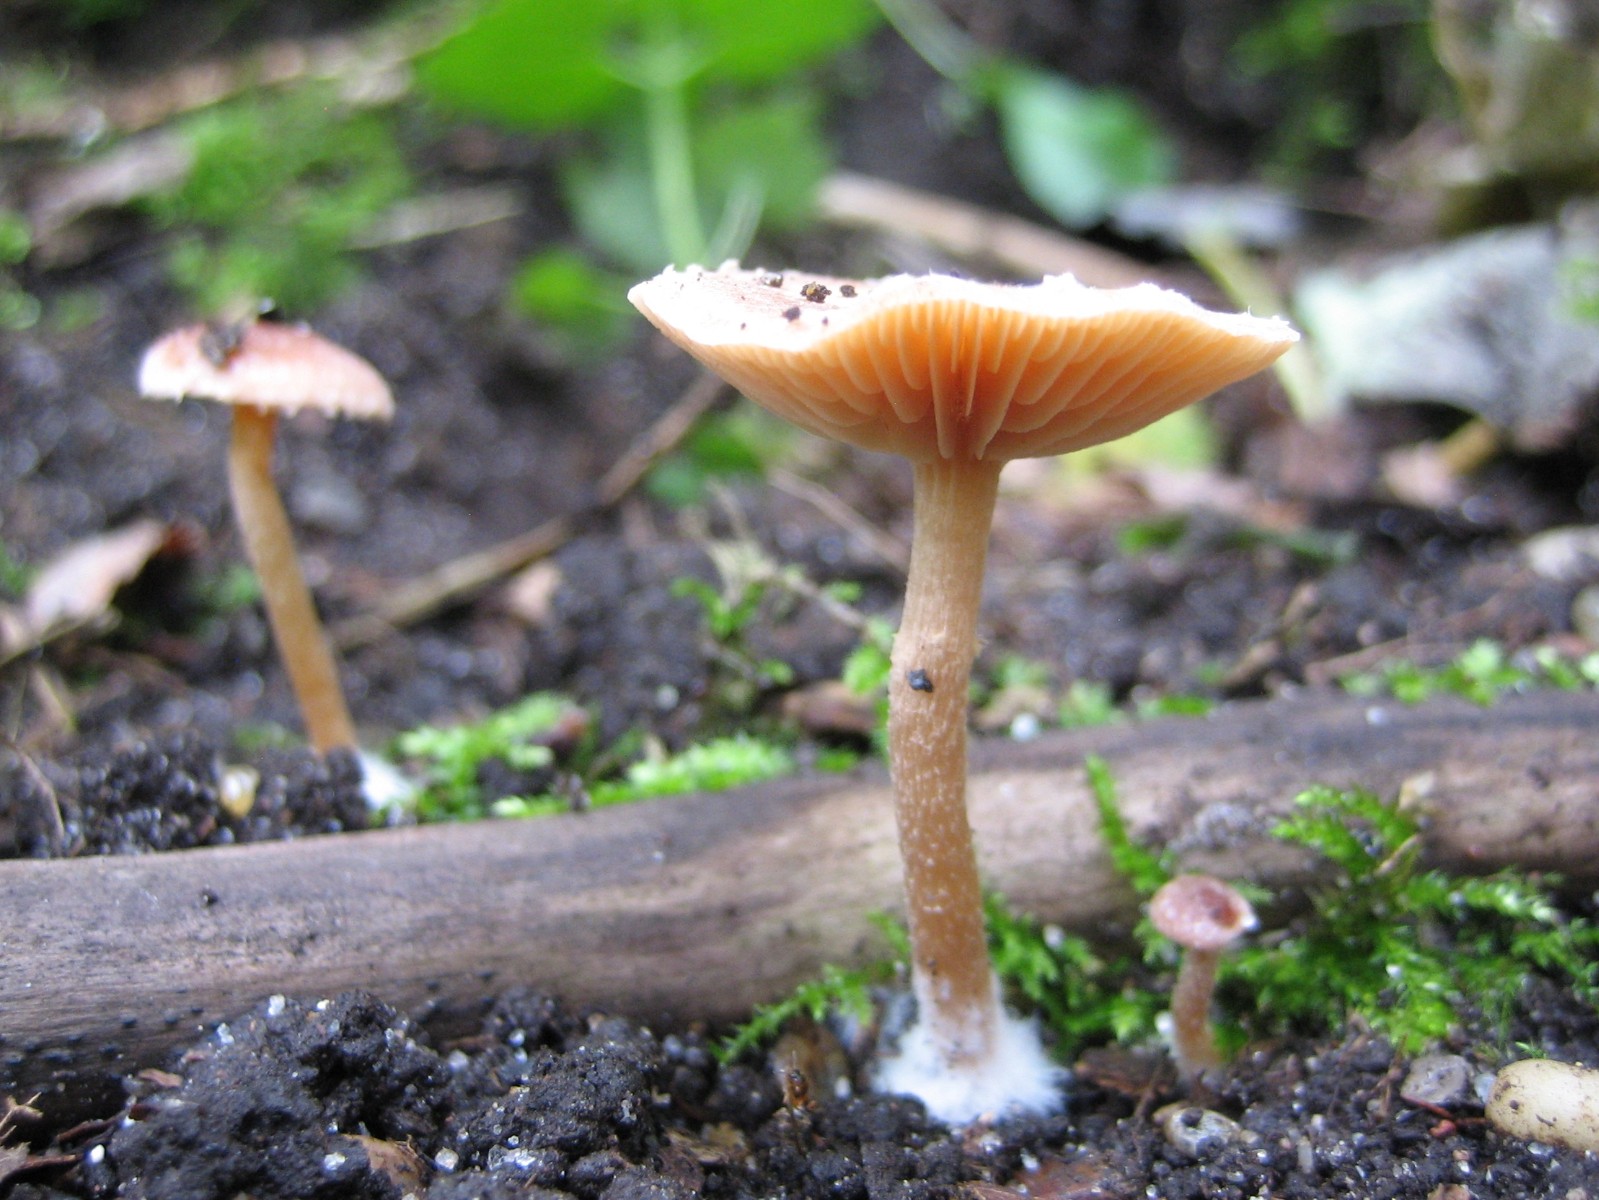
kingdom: Fungi
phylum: Basidiomycota
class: Agaricomycetes
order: Agaricales
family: Tubariaceae
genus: Tubaria
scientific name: Tubaria conspersa
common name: bleg fnughat
